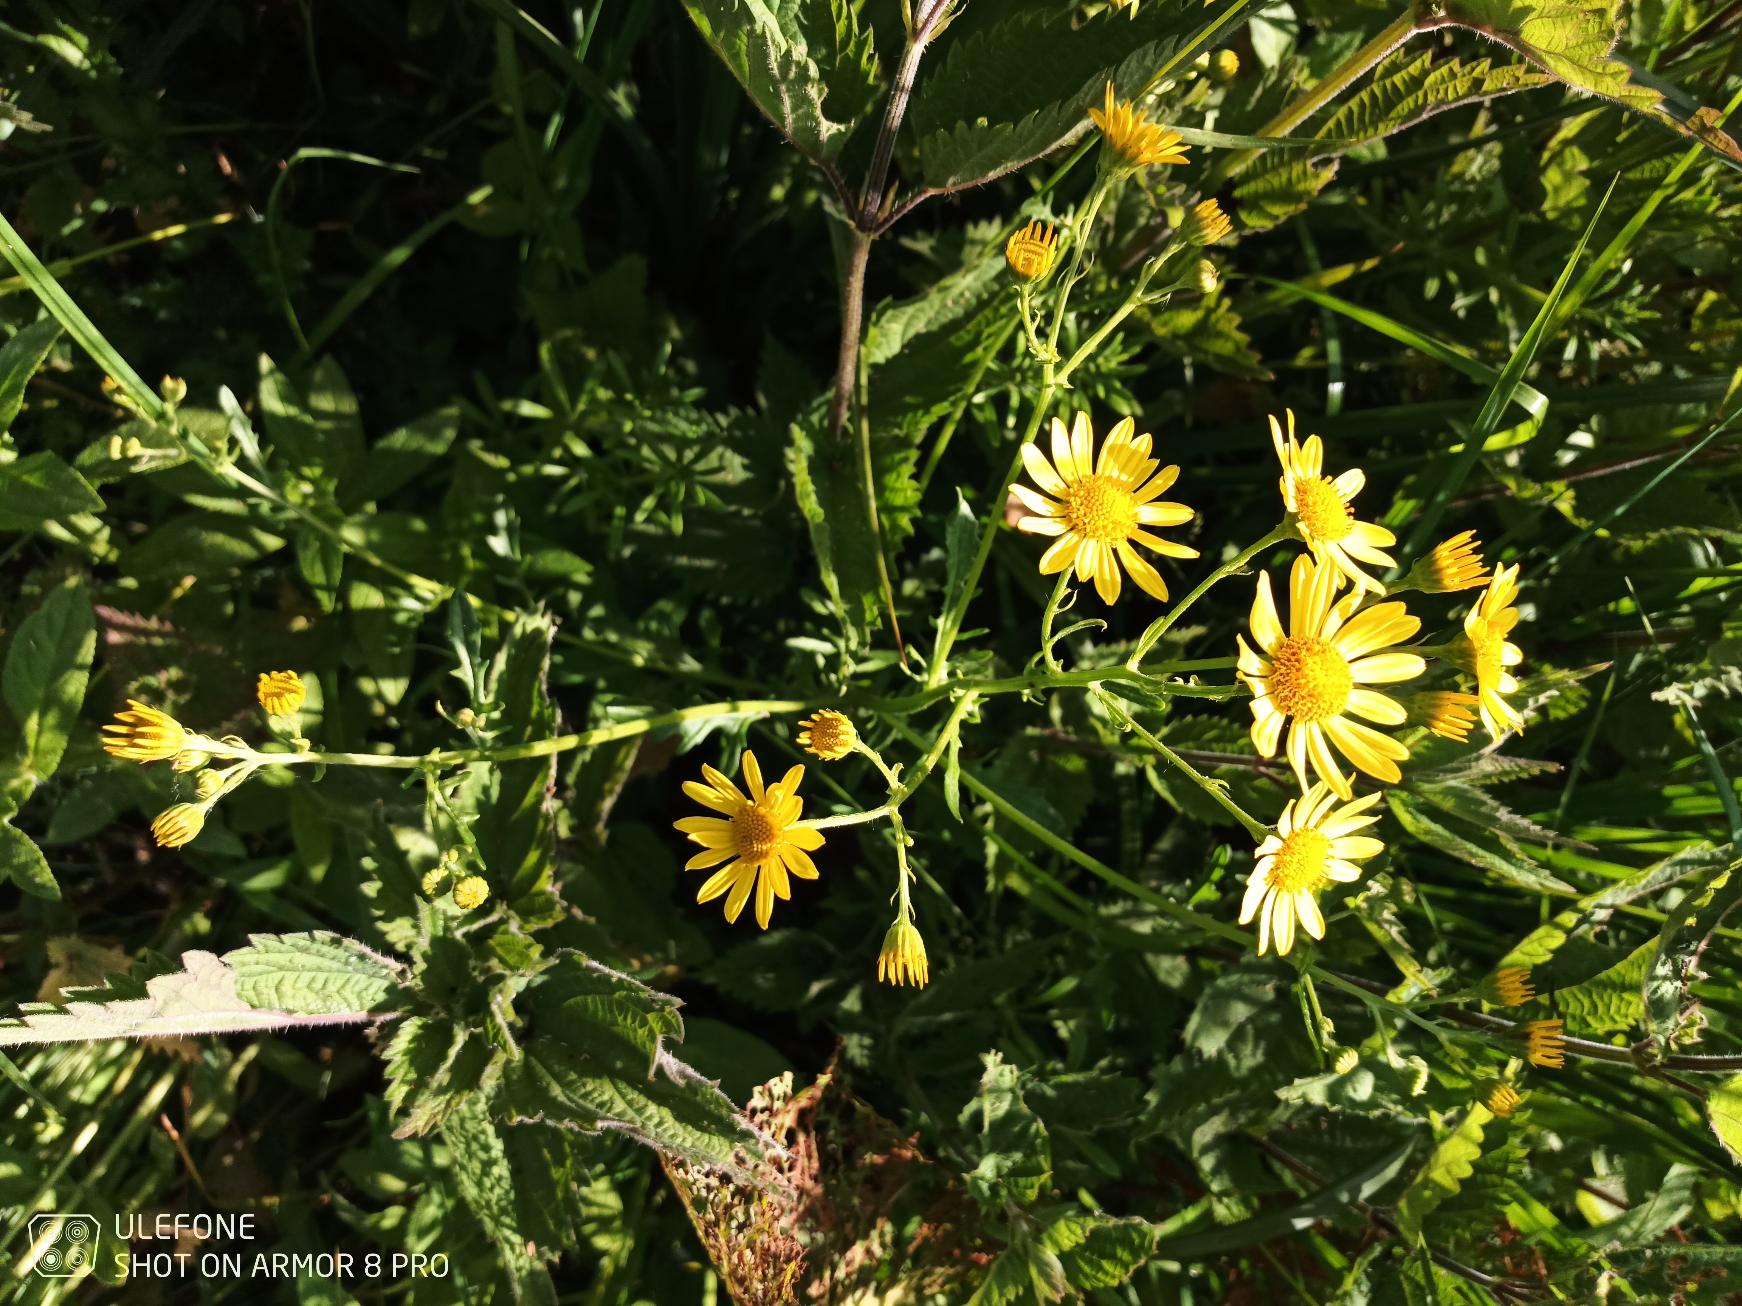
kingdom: Plantae
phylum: Tracheophyta
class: Magnoliopsida
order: Asterales
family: Asteraceae
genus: Jacobaea
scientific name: Jacobaea aquatica
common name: Vand-brandbæger
